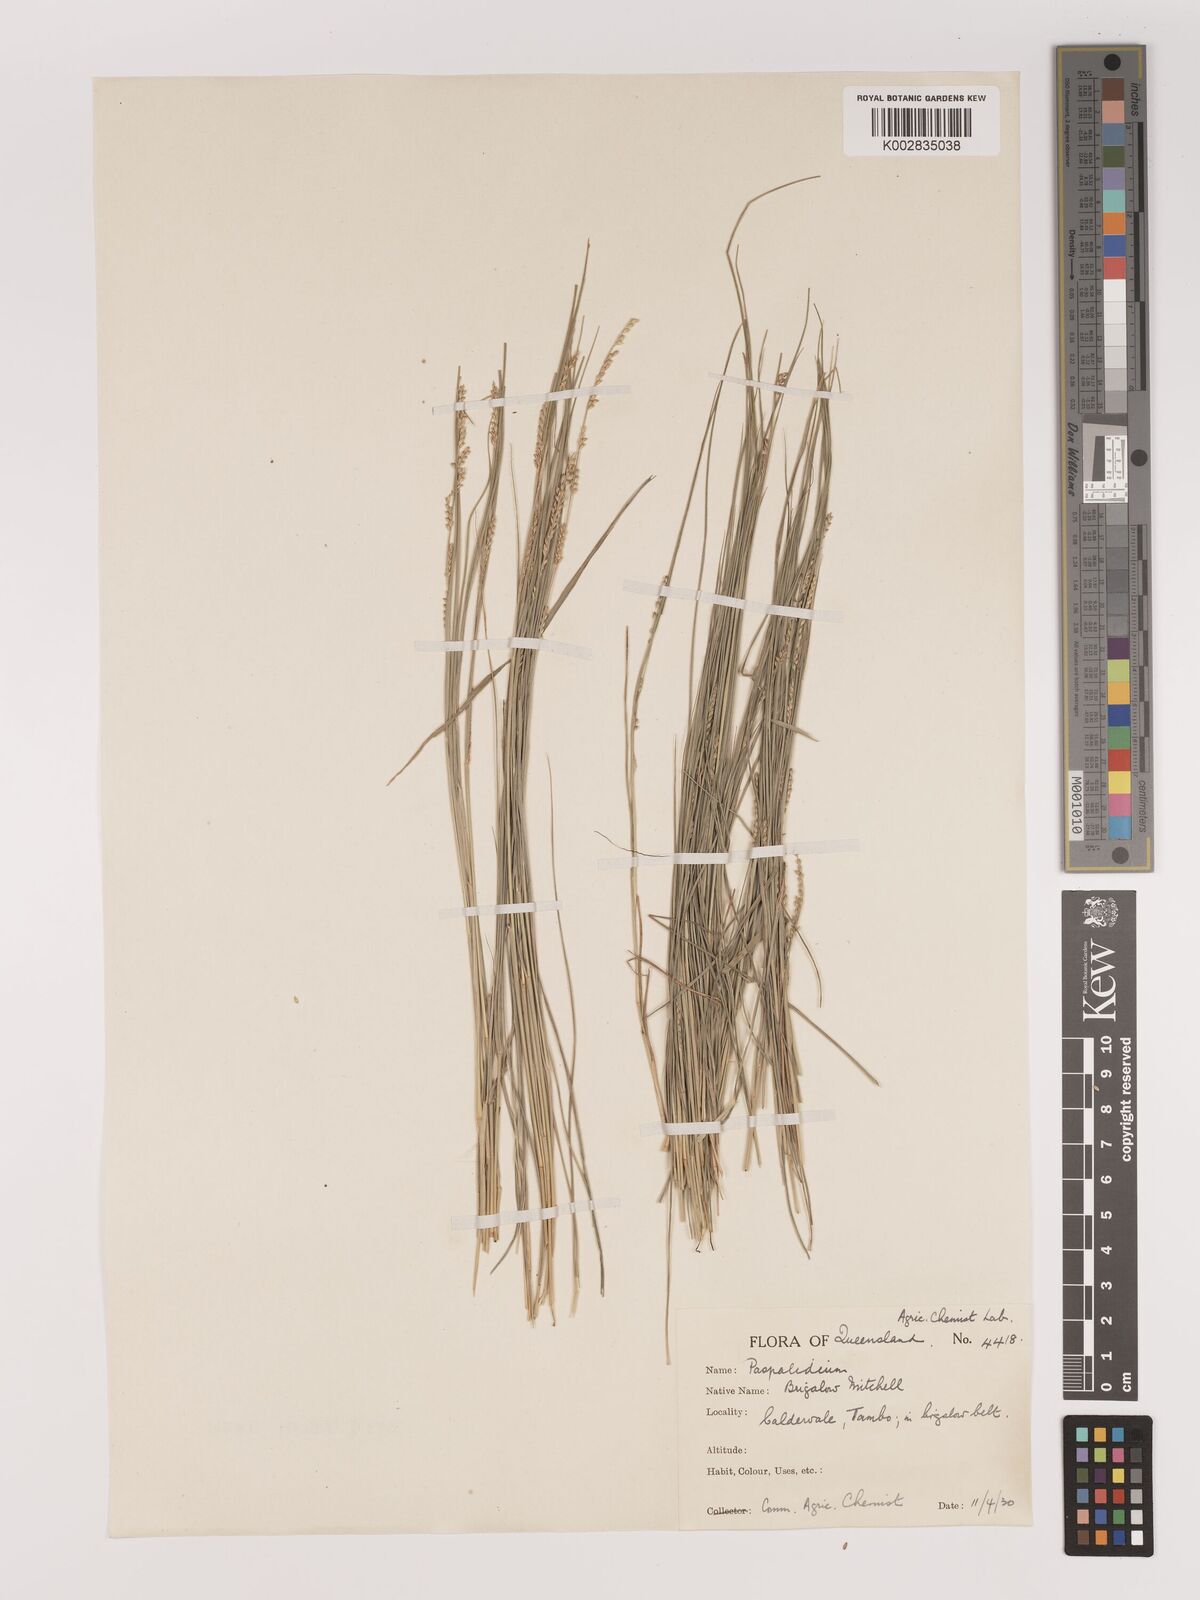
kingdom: Plantae
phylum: Tracheophyta
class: Liliopsida
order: Poales
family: Poaceae
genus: Setaria
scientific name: Setaria
